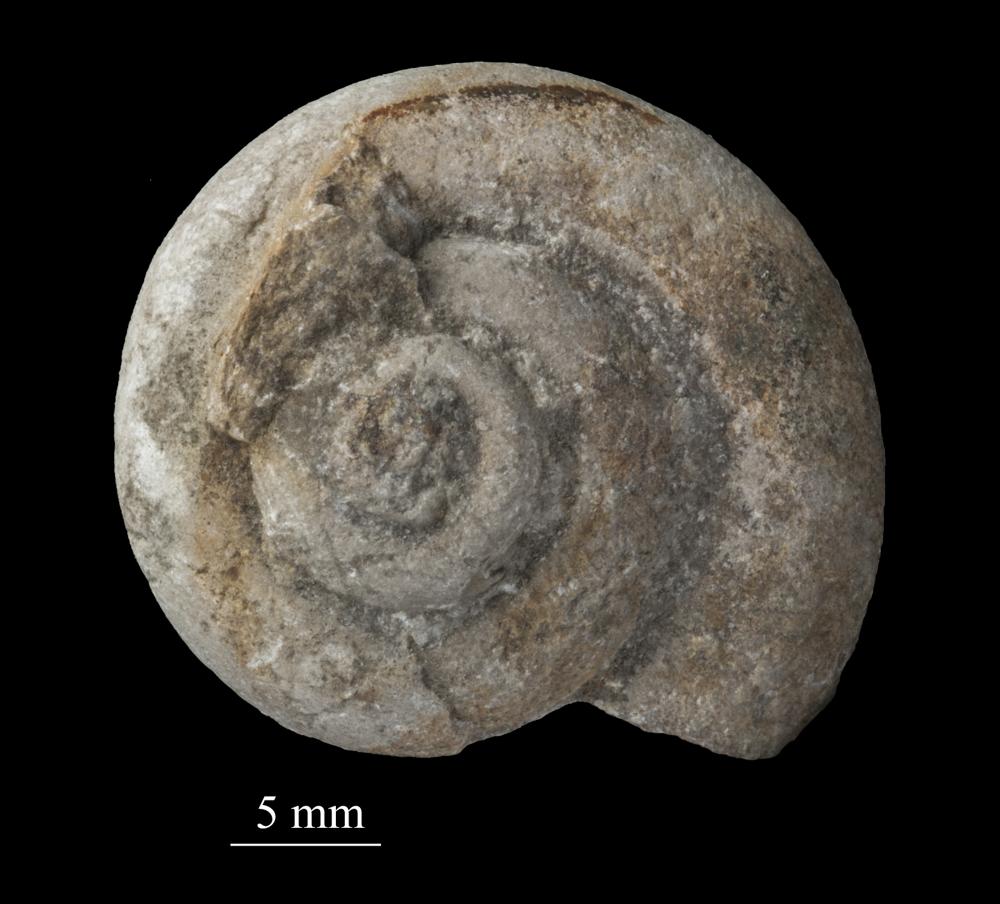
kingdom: Animalia
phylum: Mollusca
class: Gastropoda
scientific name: Gastropoda
